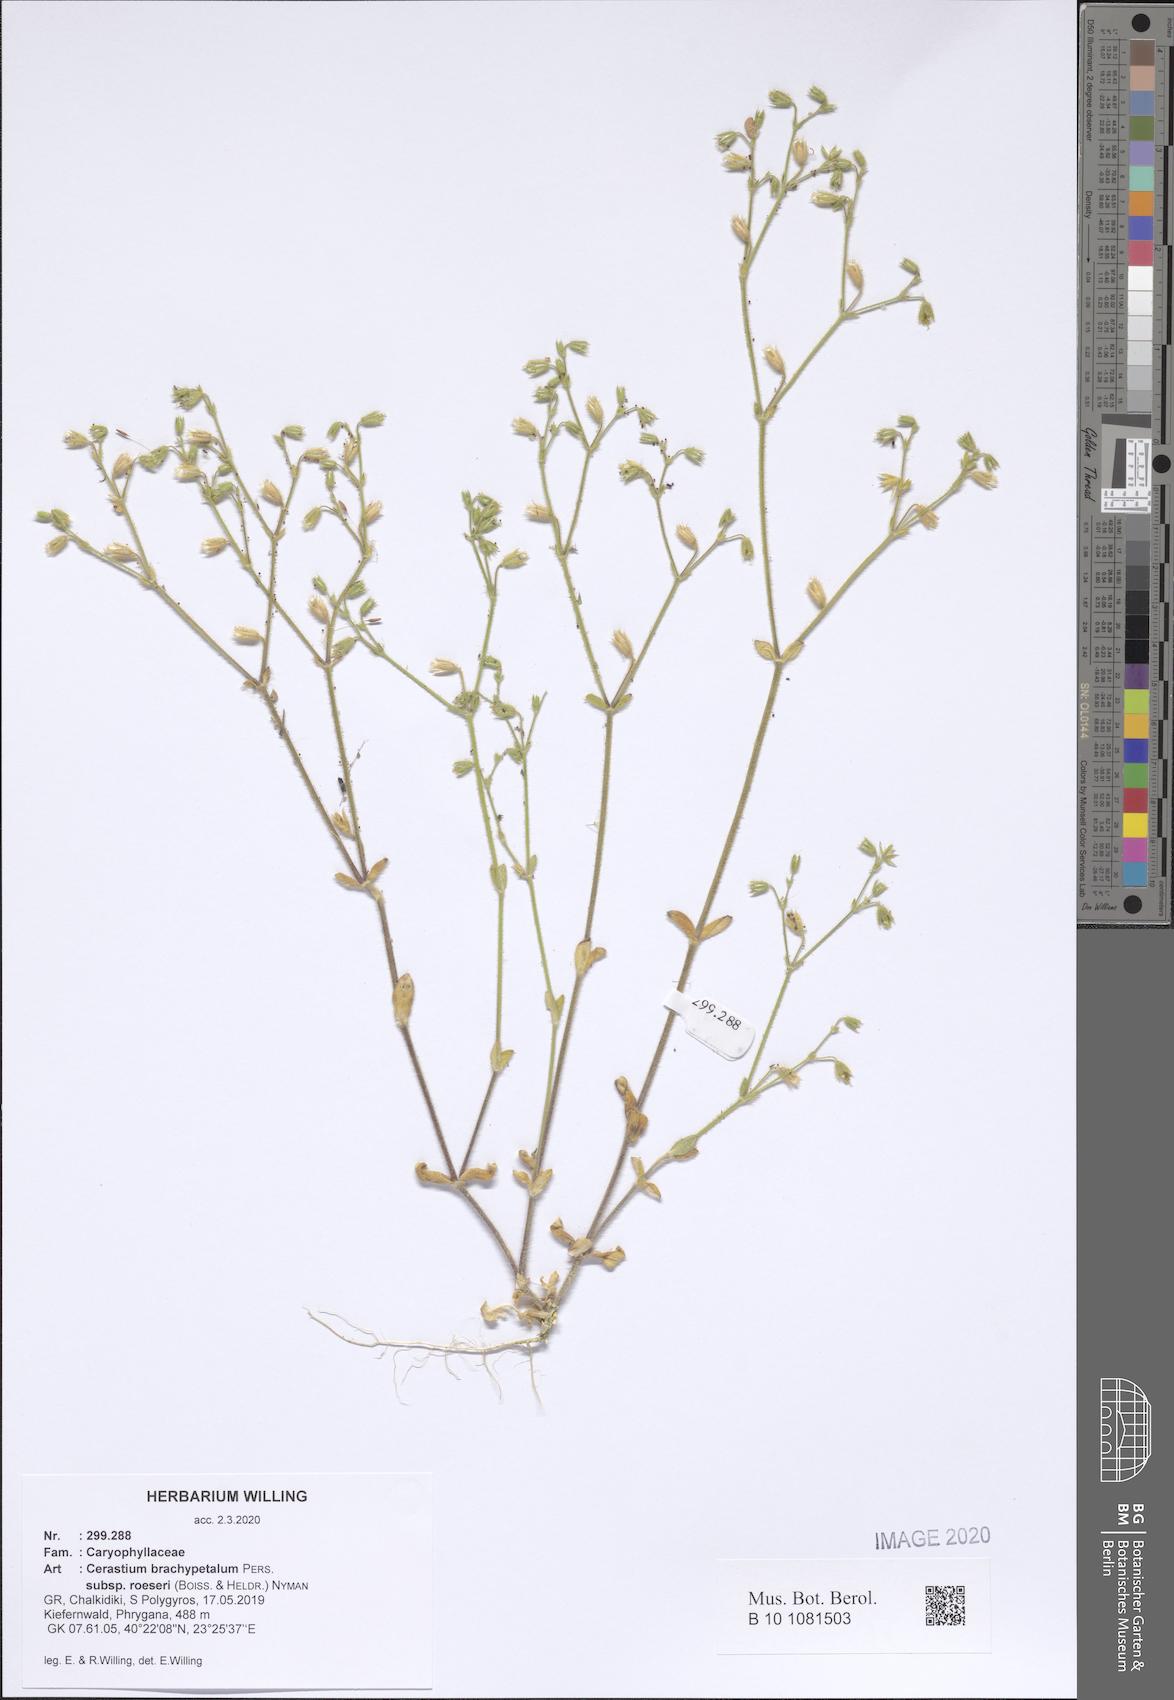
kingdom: Plantae
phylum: Tracheophyta
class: Magnoliopsida
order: Caryophyllales
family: Caryophyllaceae
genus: Cerastium
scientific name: Cerastium brachypetalum
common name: Grey mouse-ear
